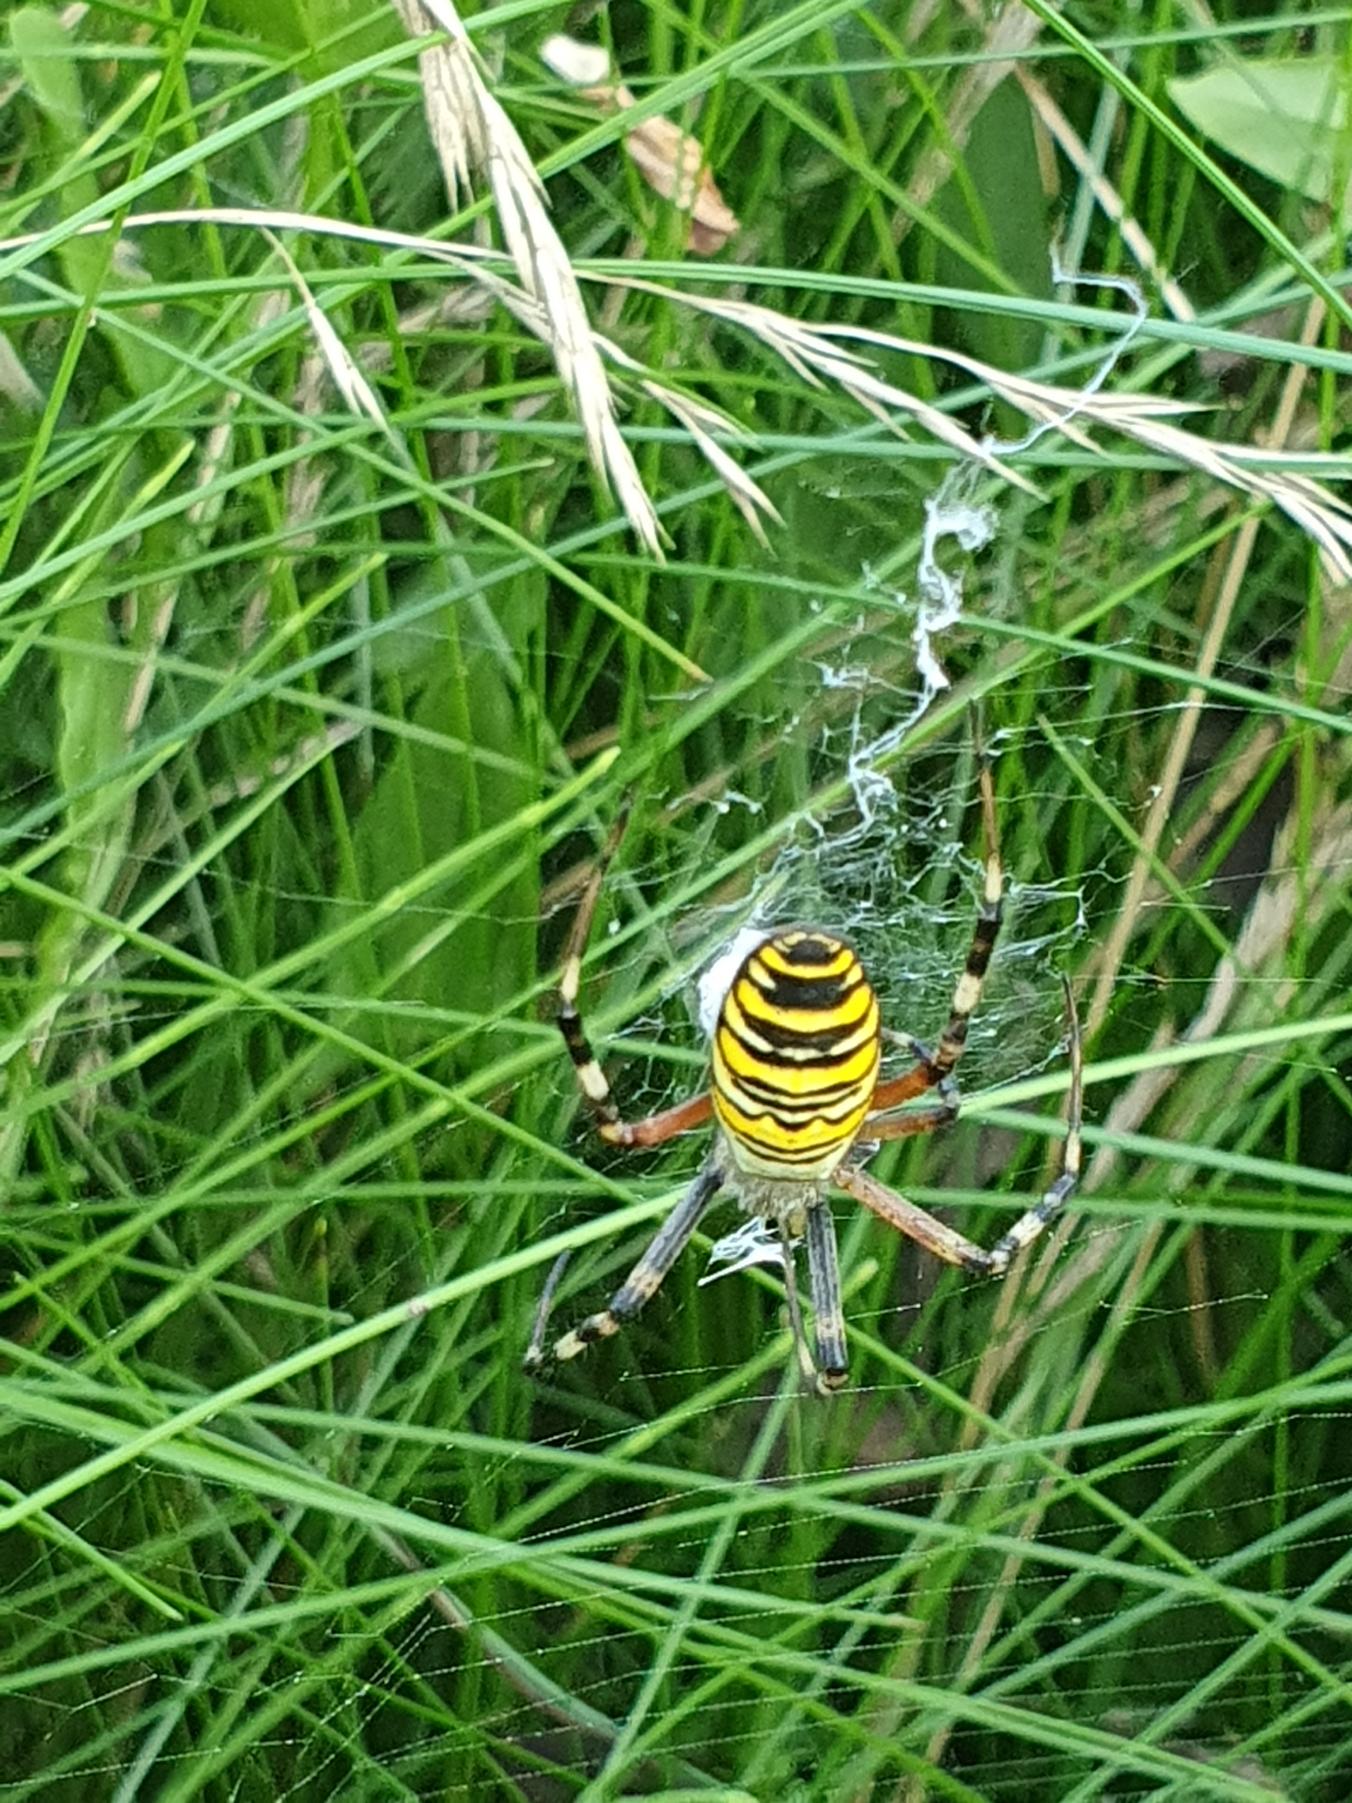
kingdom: Animalia
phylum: Arthropoda
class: Arachnida
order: Araneae
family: Araneidae
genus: Argiope
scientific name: Argiope bruennichi
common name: Hvepseedderkop
